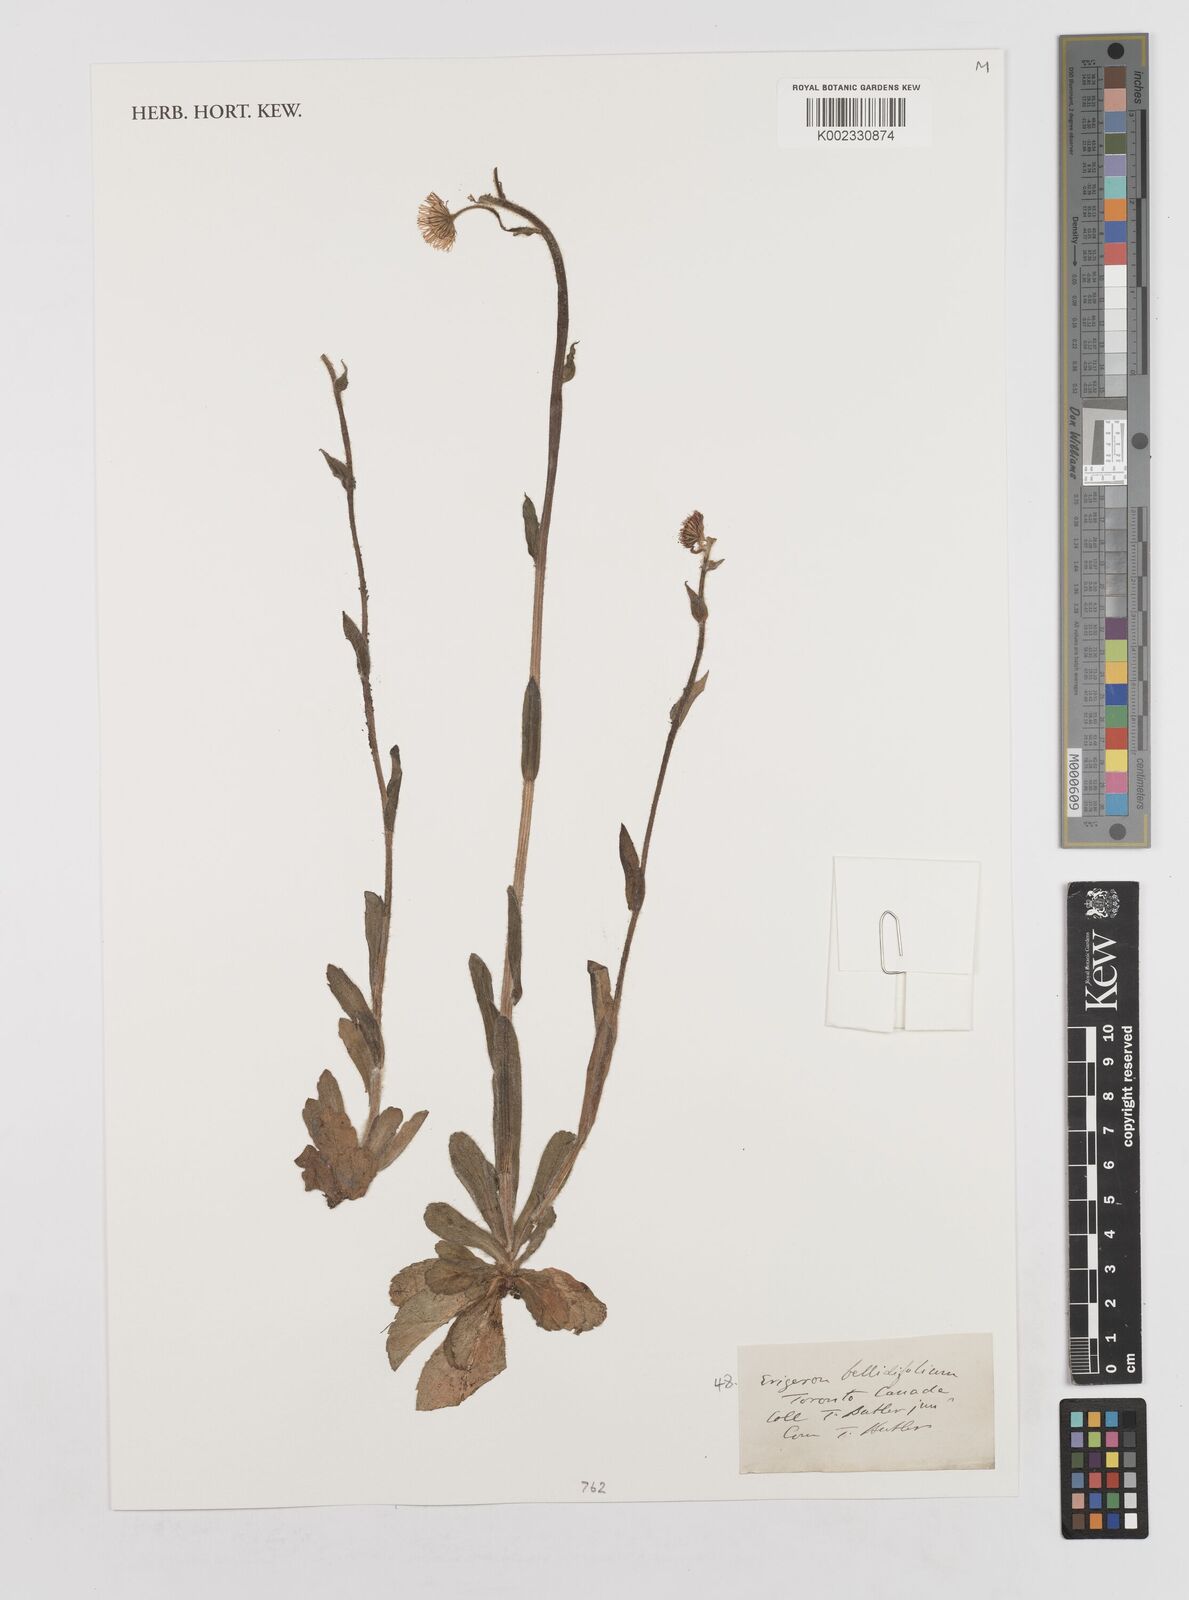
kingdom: Plantae
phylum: Tracheophyta
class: Magnoliopsida
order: Asterales
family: Asteraceae
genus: Erigeron
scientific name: Erigeron pulchellus
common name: Hairy fleabane
